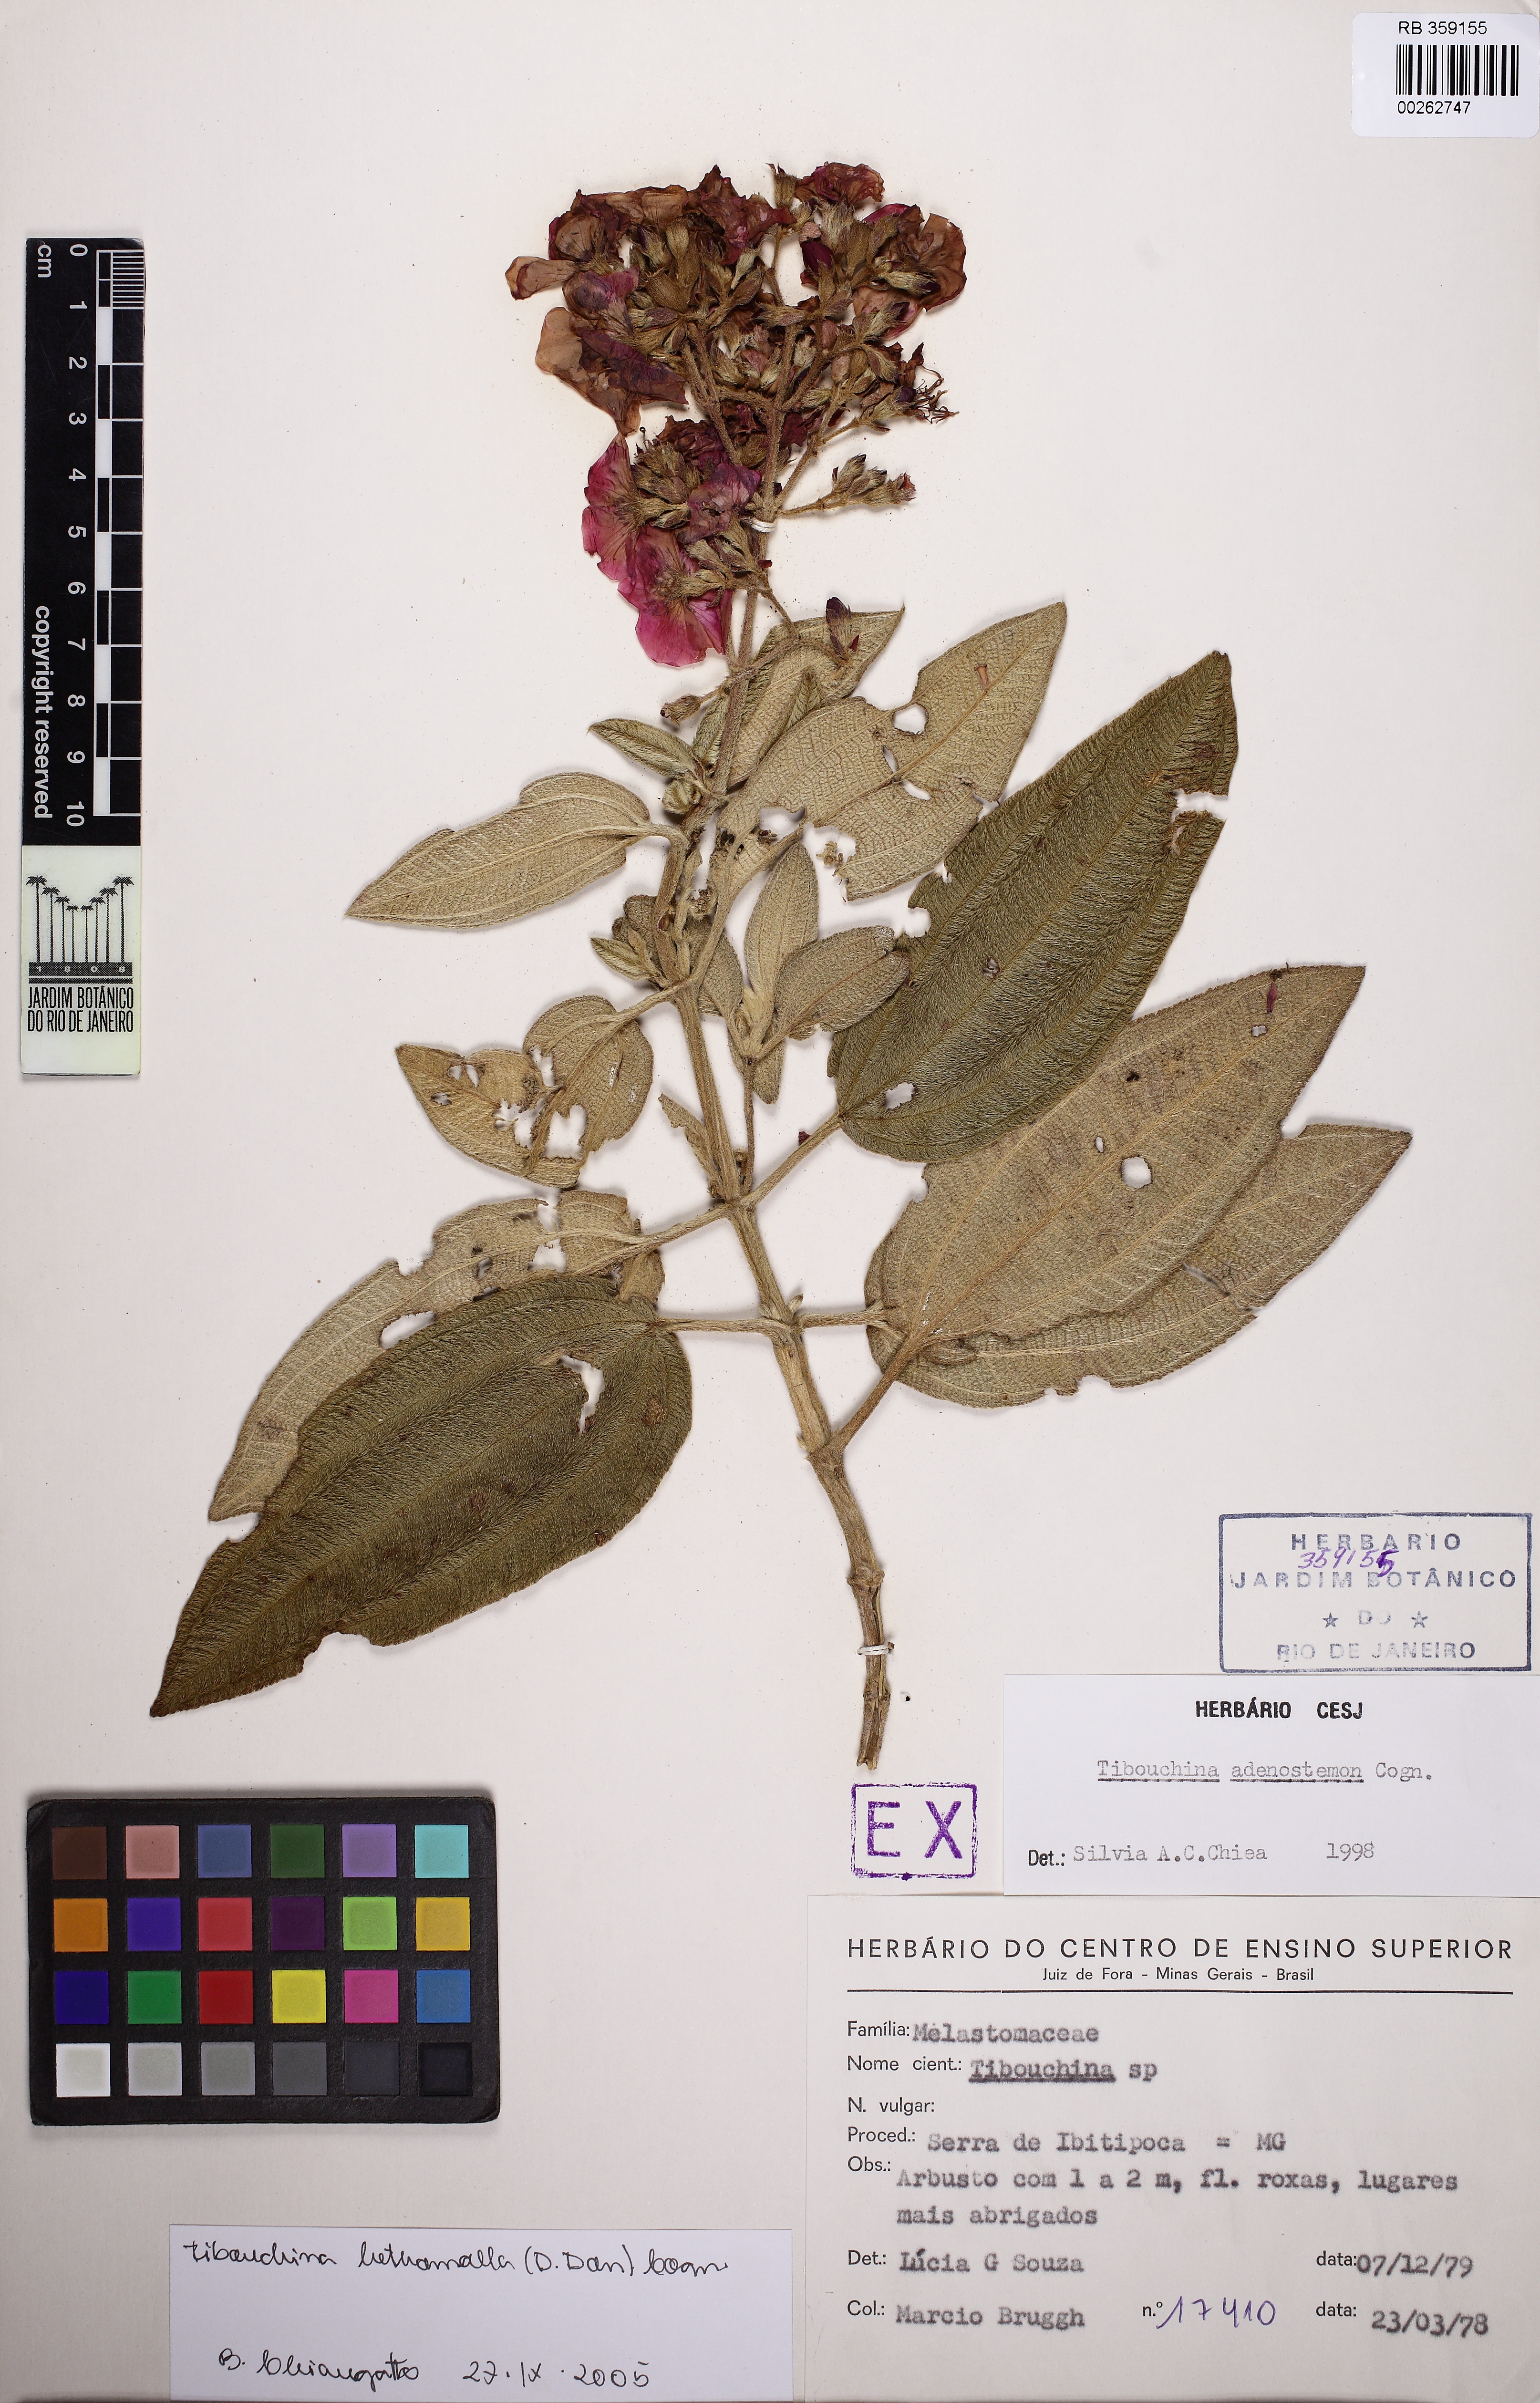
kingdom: Plantae
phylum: Tracheophyta
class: Magnoliopsida
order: Myrtales
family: Melastomataceae
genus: Pleroma
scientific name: Pleroma heteromallum
